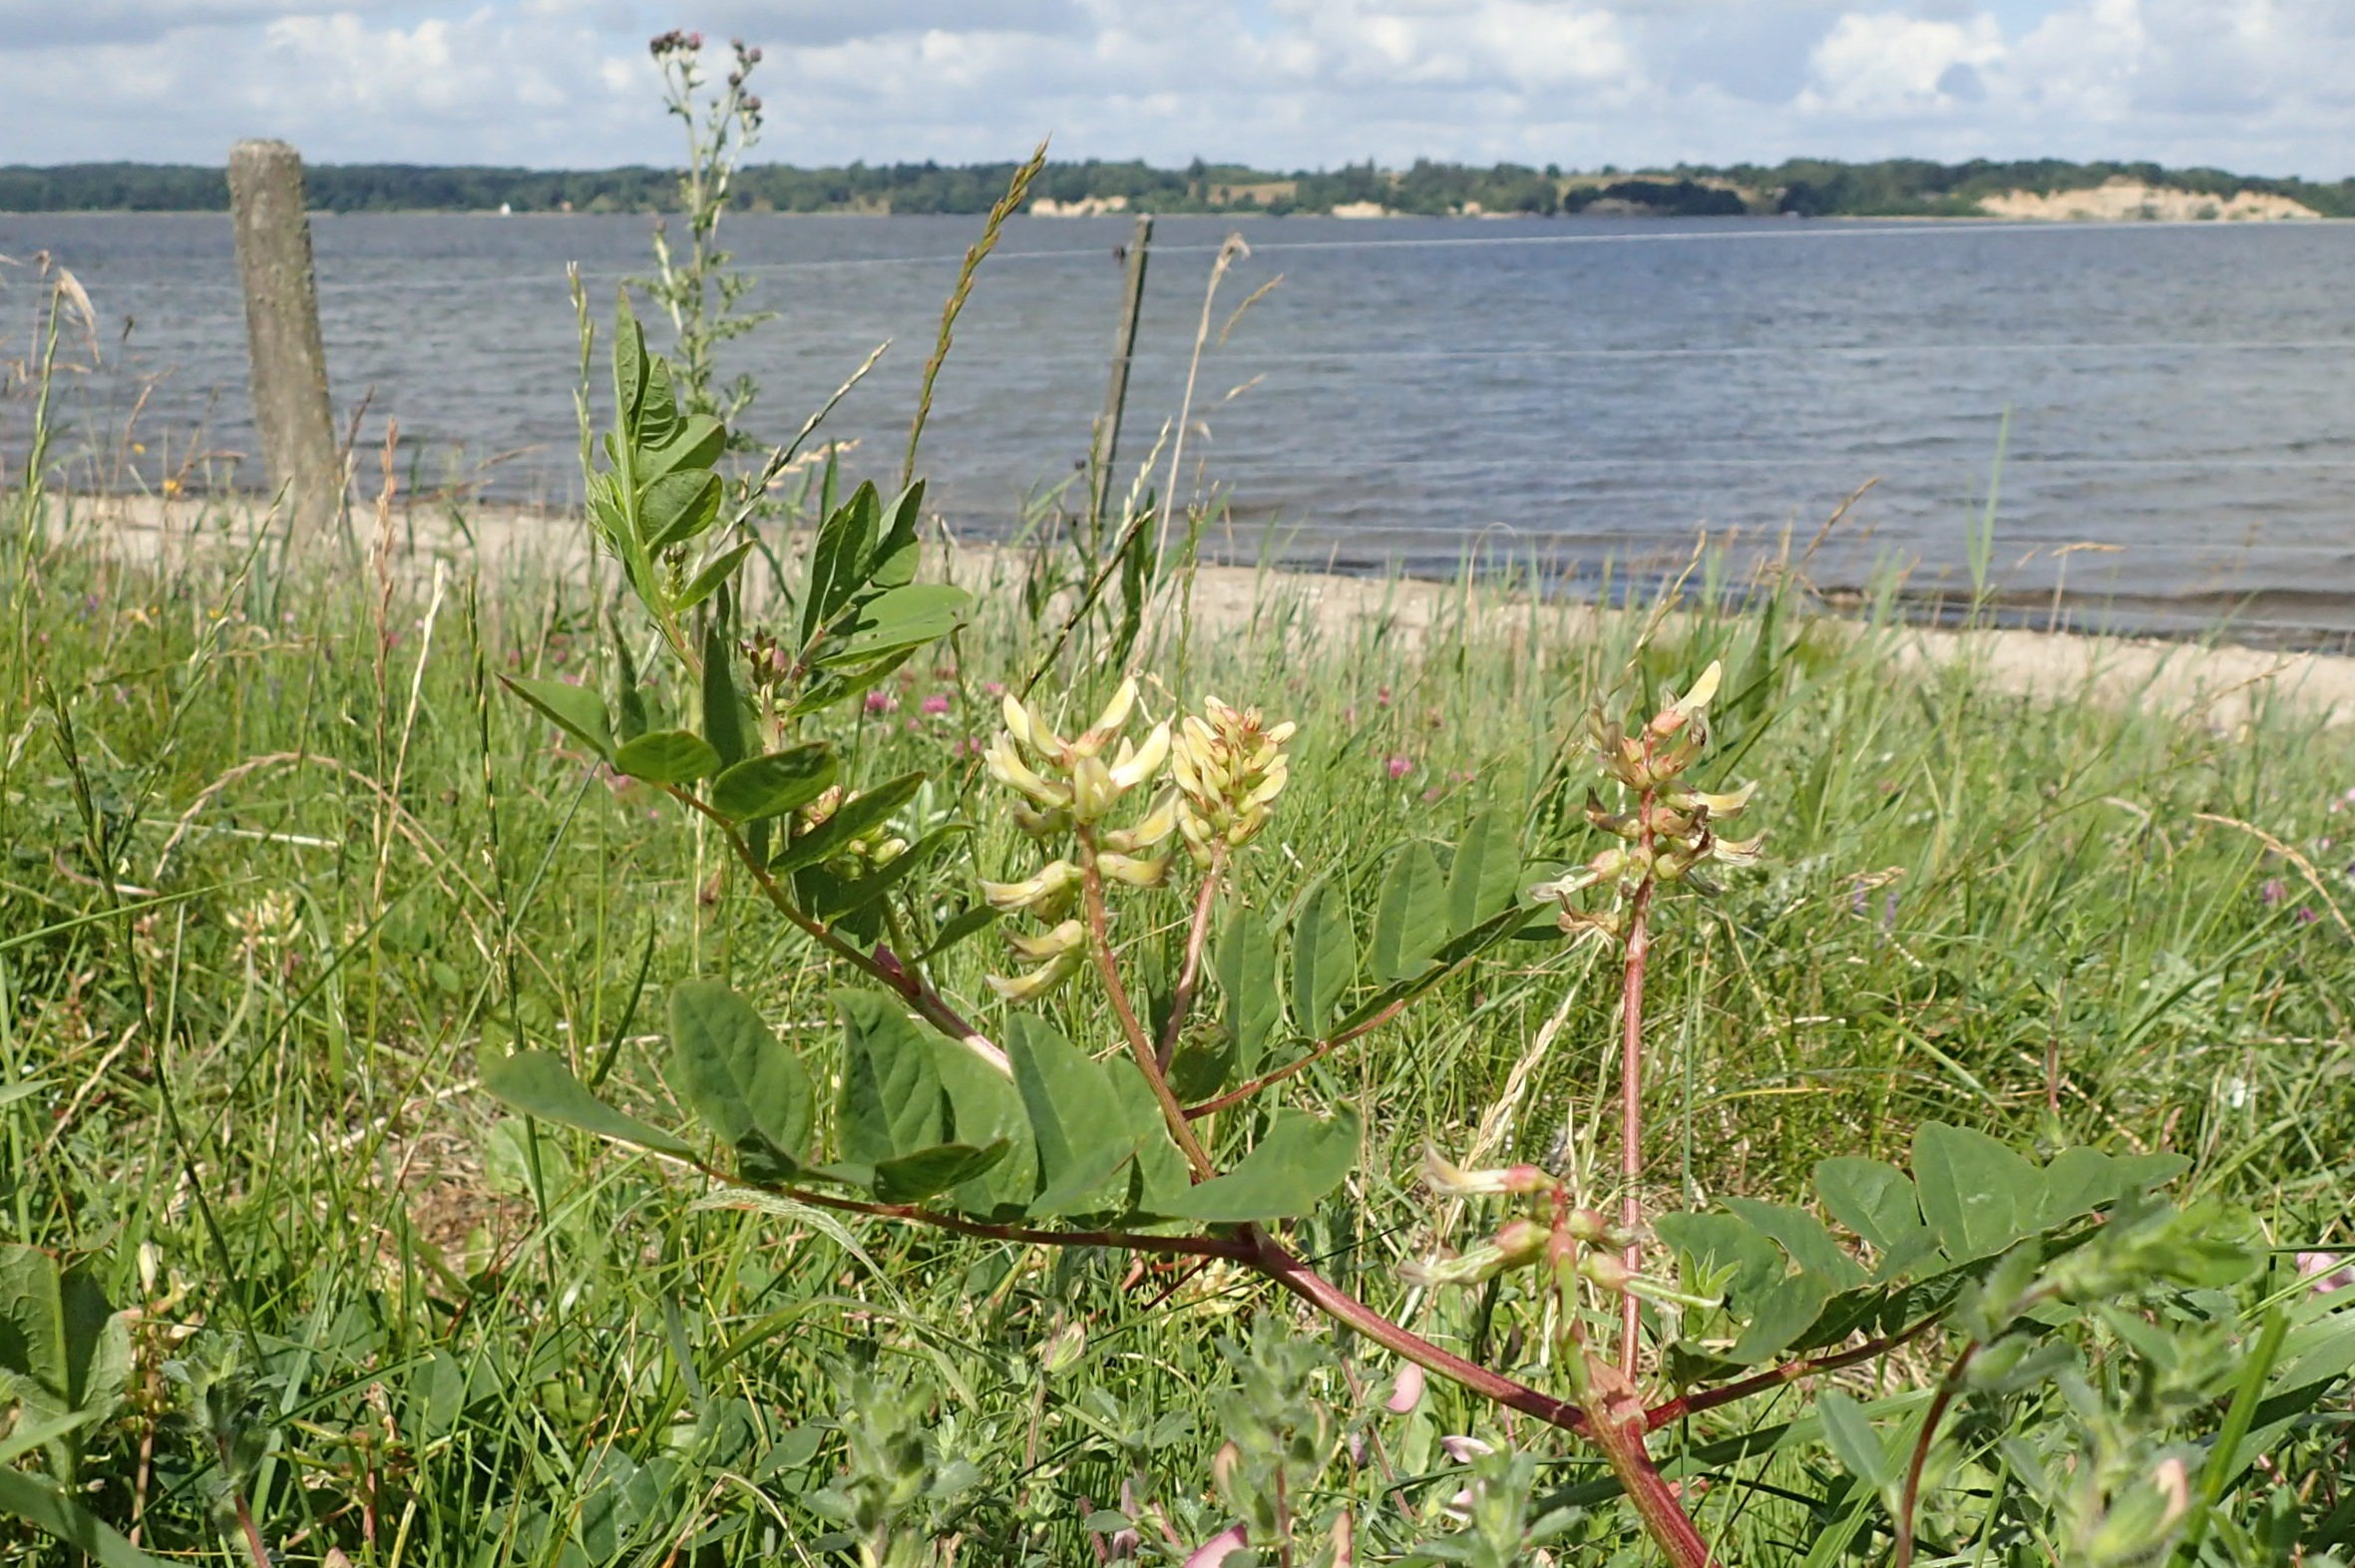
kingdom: Plantae
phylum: Tracheophyta
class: Magnoliopsida
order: Fabales
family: Fabaceae
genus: Astragalus
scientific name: Astragalus glycyphyllos
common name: Sød astragel
